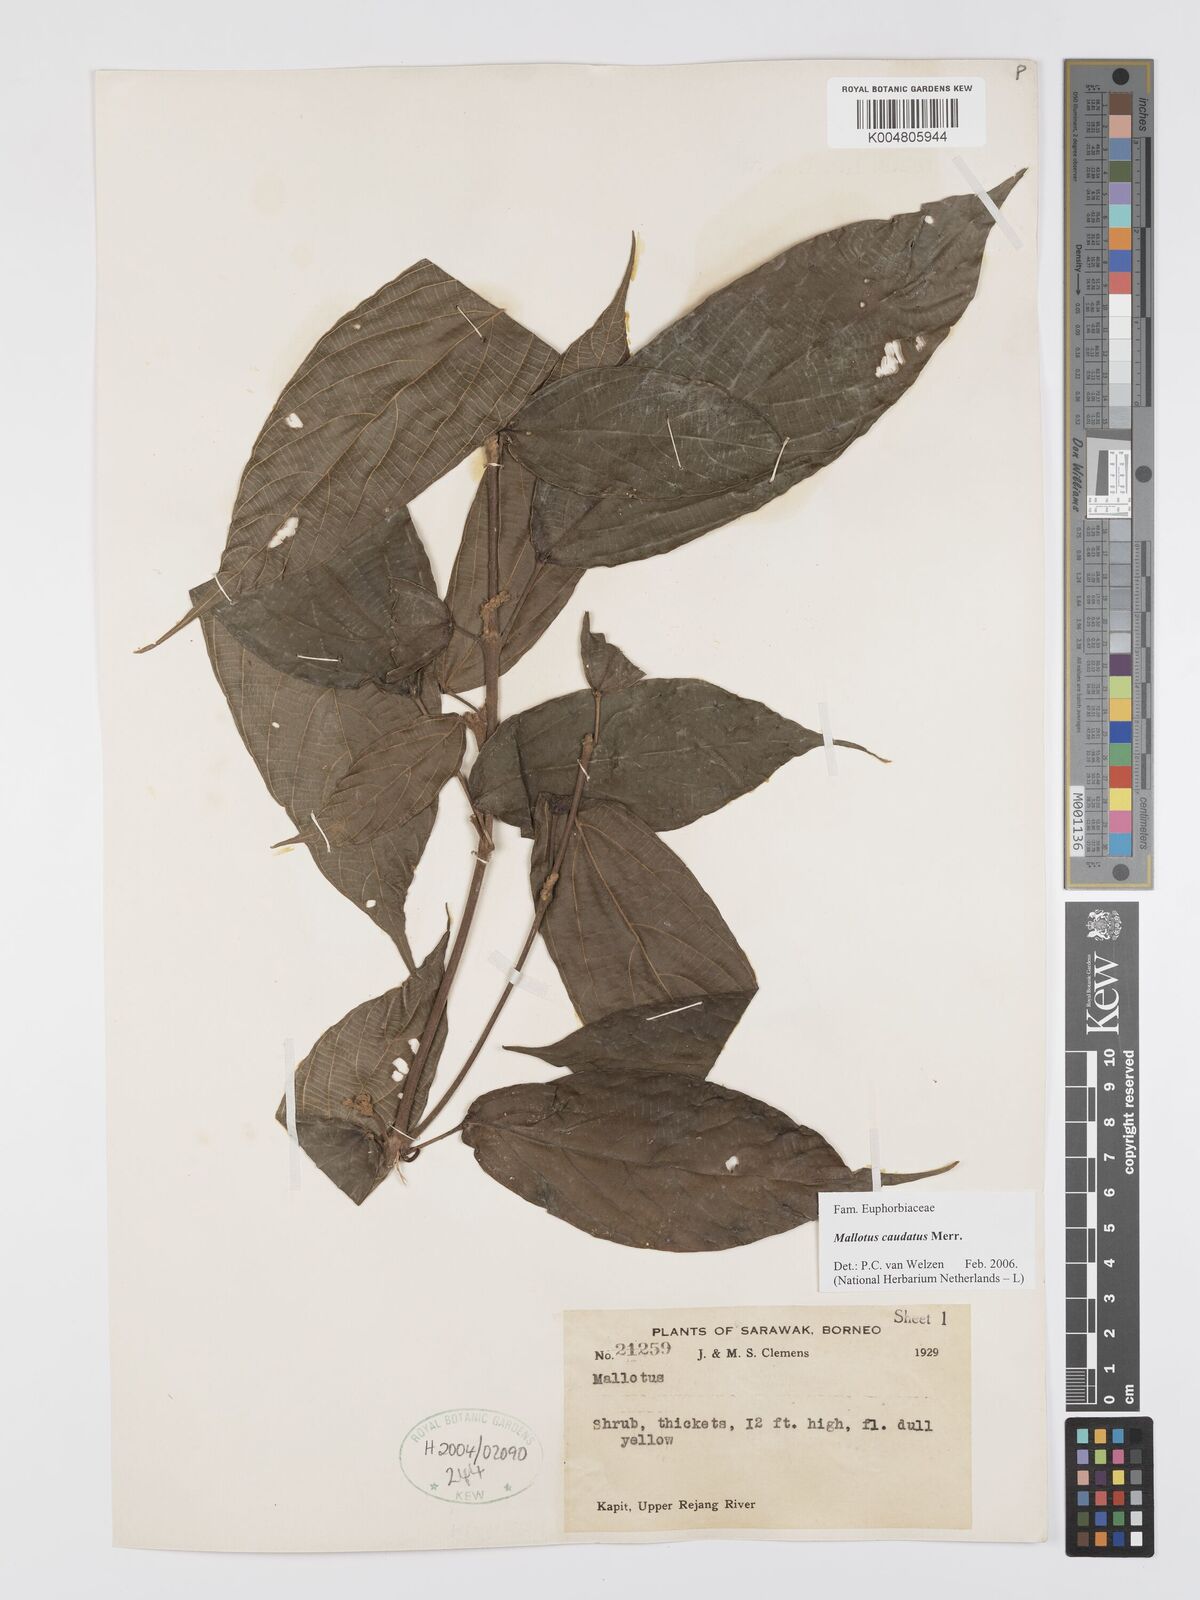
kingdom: Plantae
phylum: Tracheophyta
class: Magnoliopsida
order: Malpighiales
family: Euphorbiaceae
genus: Mallotus
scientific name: Mallotus caudatus
